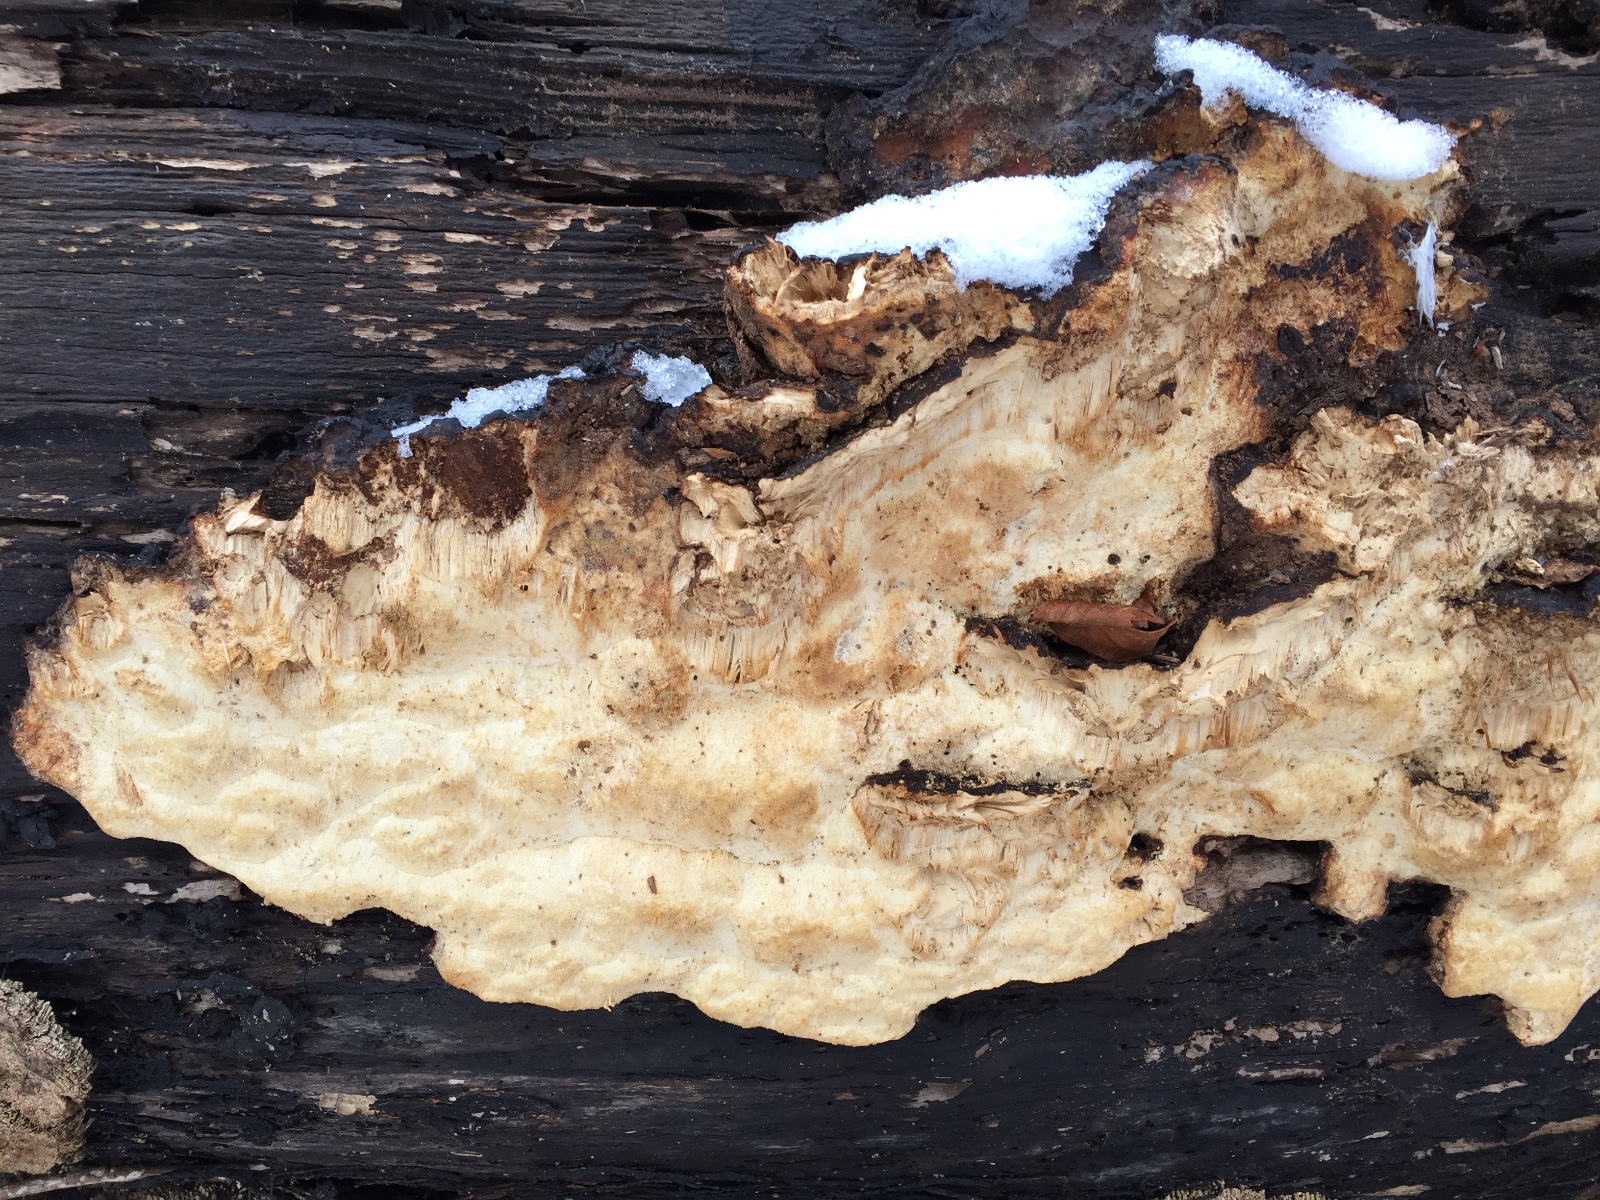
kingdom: Fungi
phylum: Basidiomycota
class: Agaricomycetes
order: Polyporales
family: Ischnodermataceae
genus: Ischnoderma
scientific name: Ischnoderma resinosum
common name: løv-tjæreporesvamp
